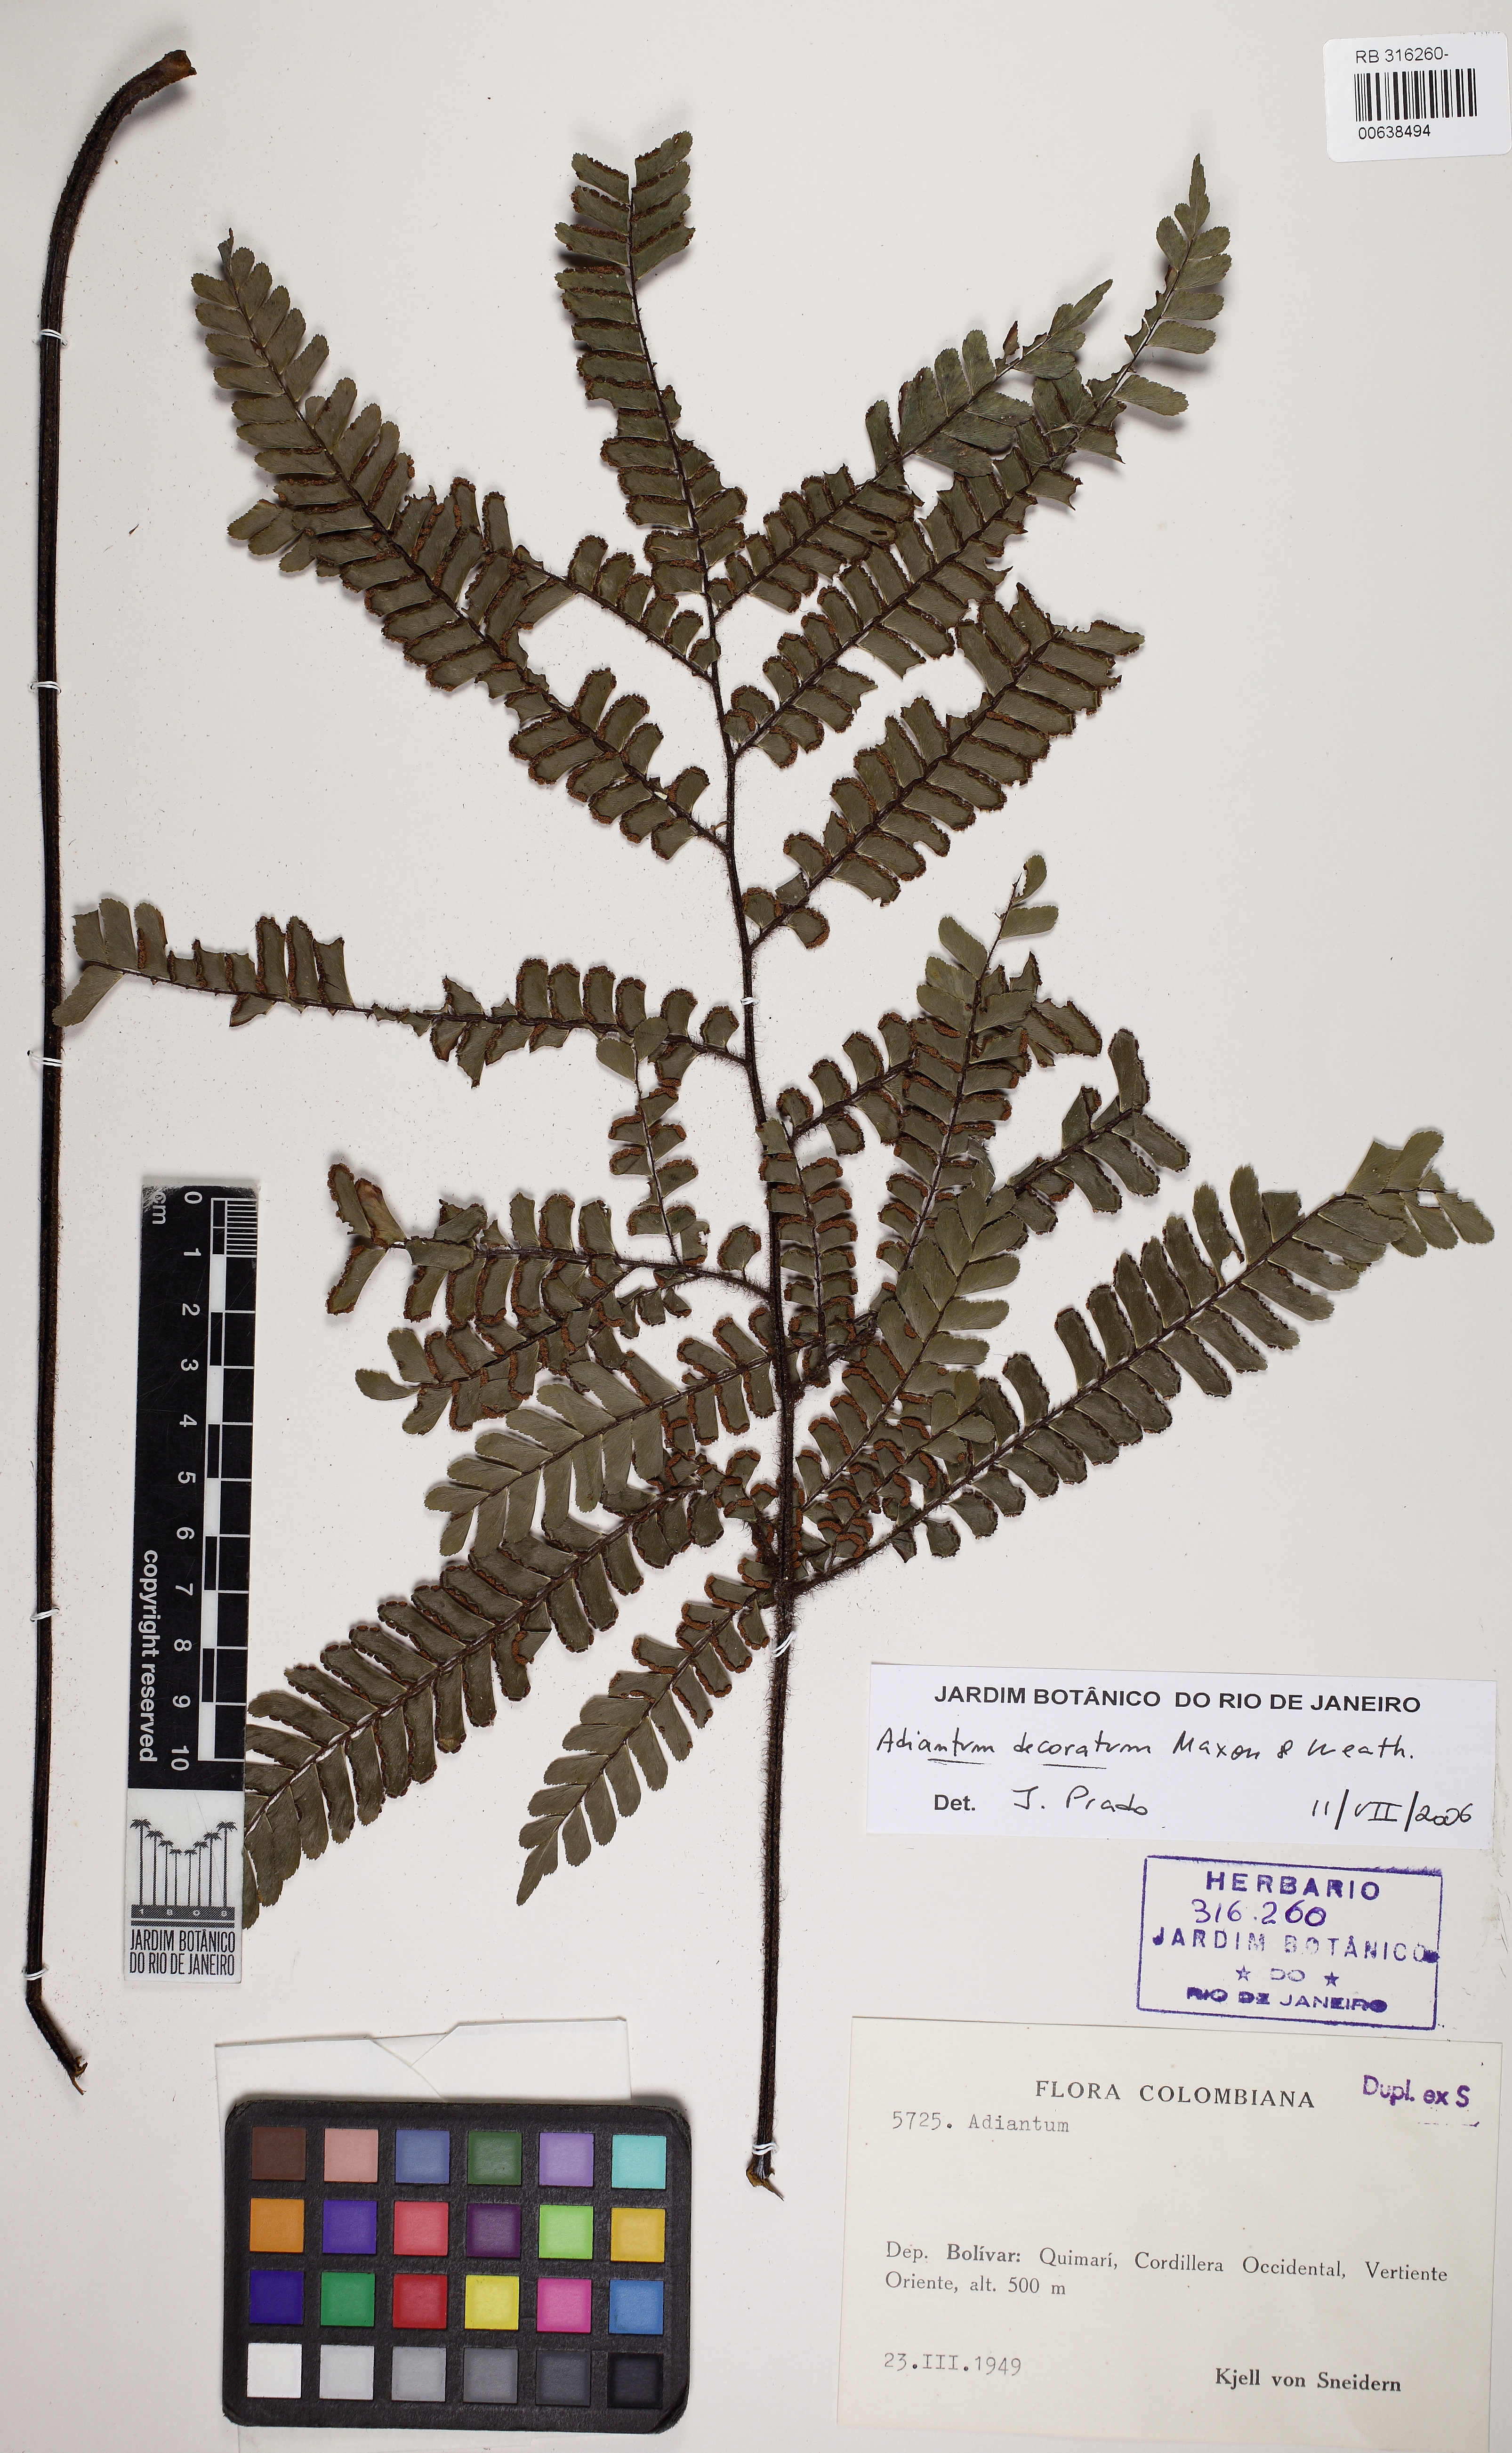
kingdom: Plantae
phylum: Tracheophyta
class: Polypodiopsida
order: Polypodiales
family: Pteridaceae
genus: Adiantum
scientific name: Adiantum decoratum
